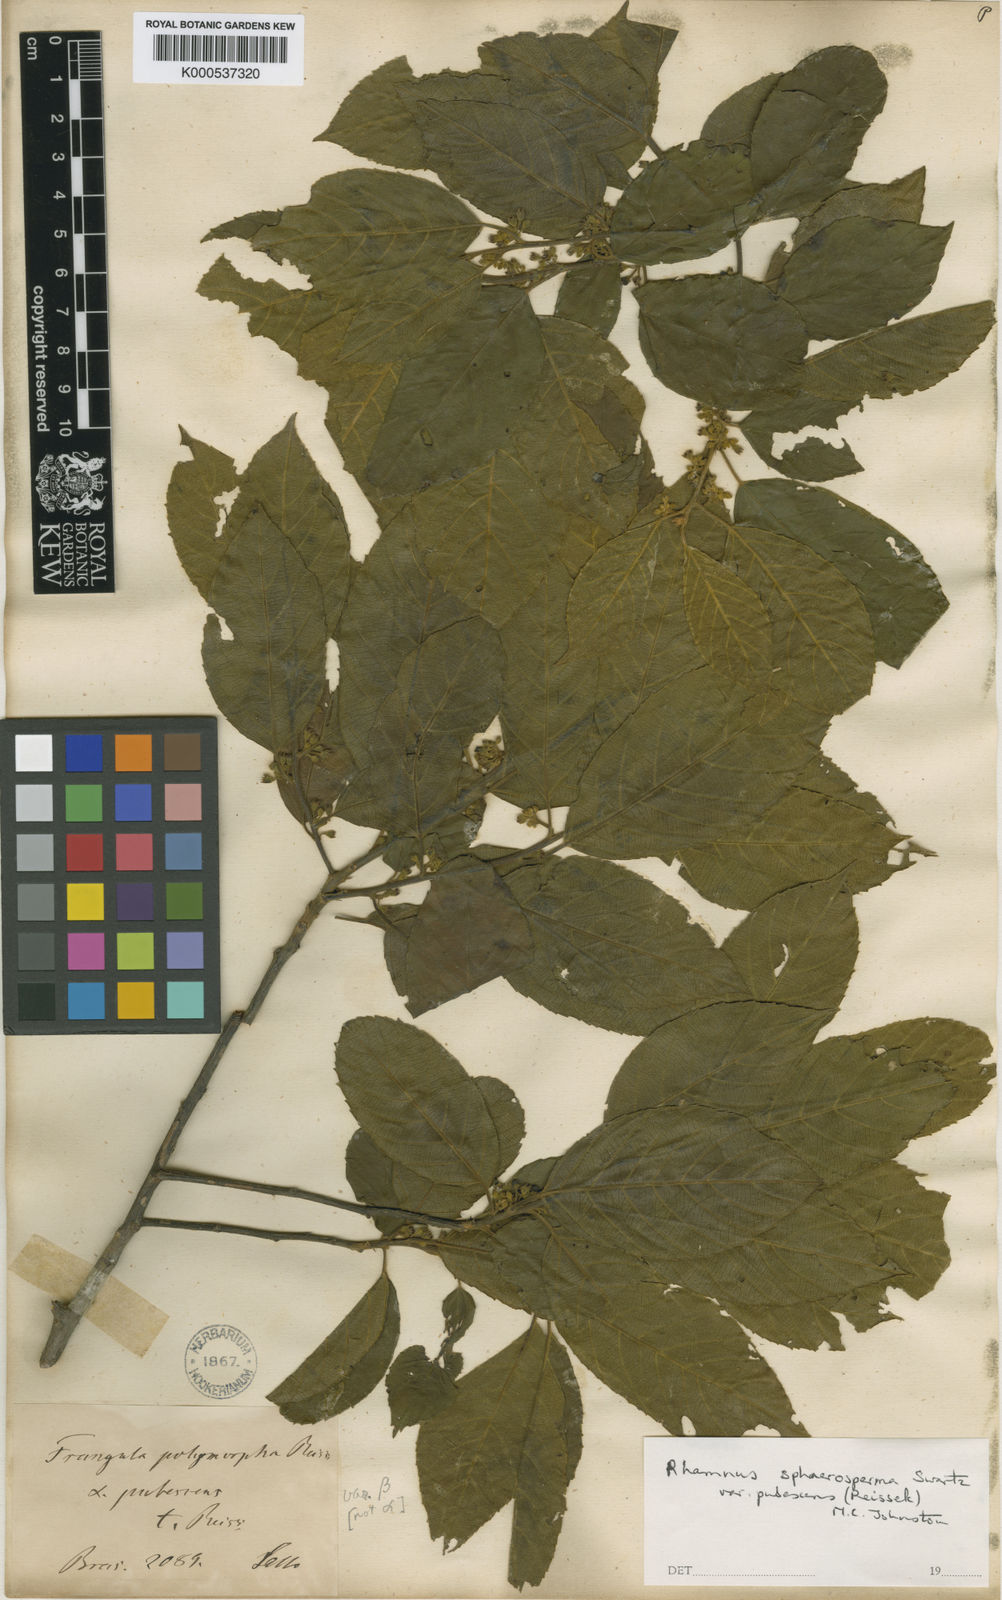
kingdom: Plantae
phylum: Tracheophyta
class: Magnoliopsida
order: Rosales
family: Rhamnaceae
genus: Frangula
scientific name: Frangula
